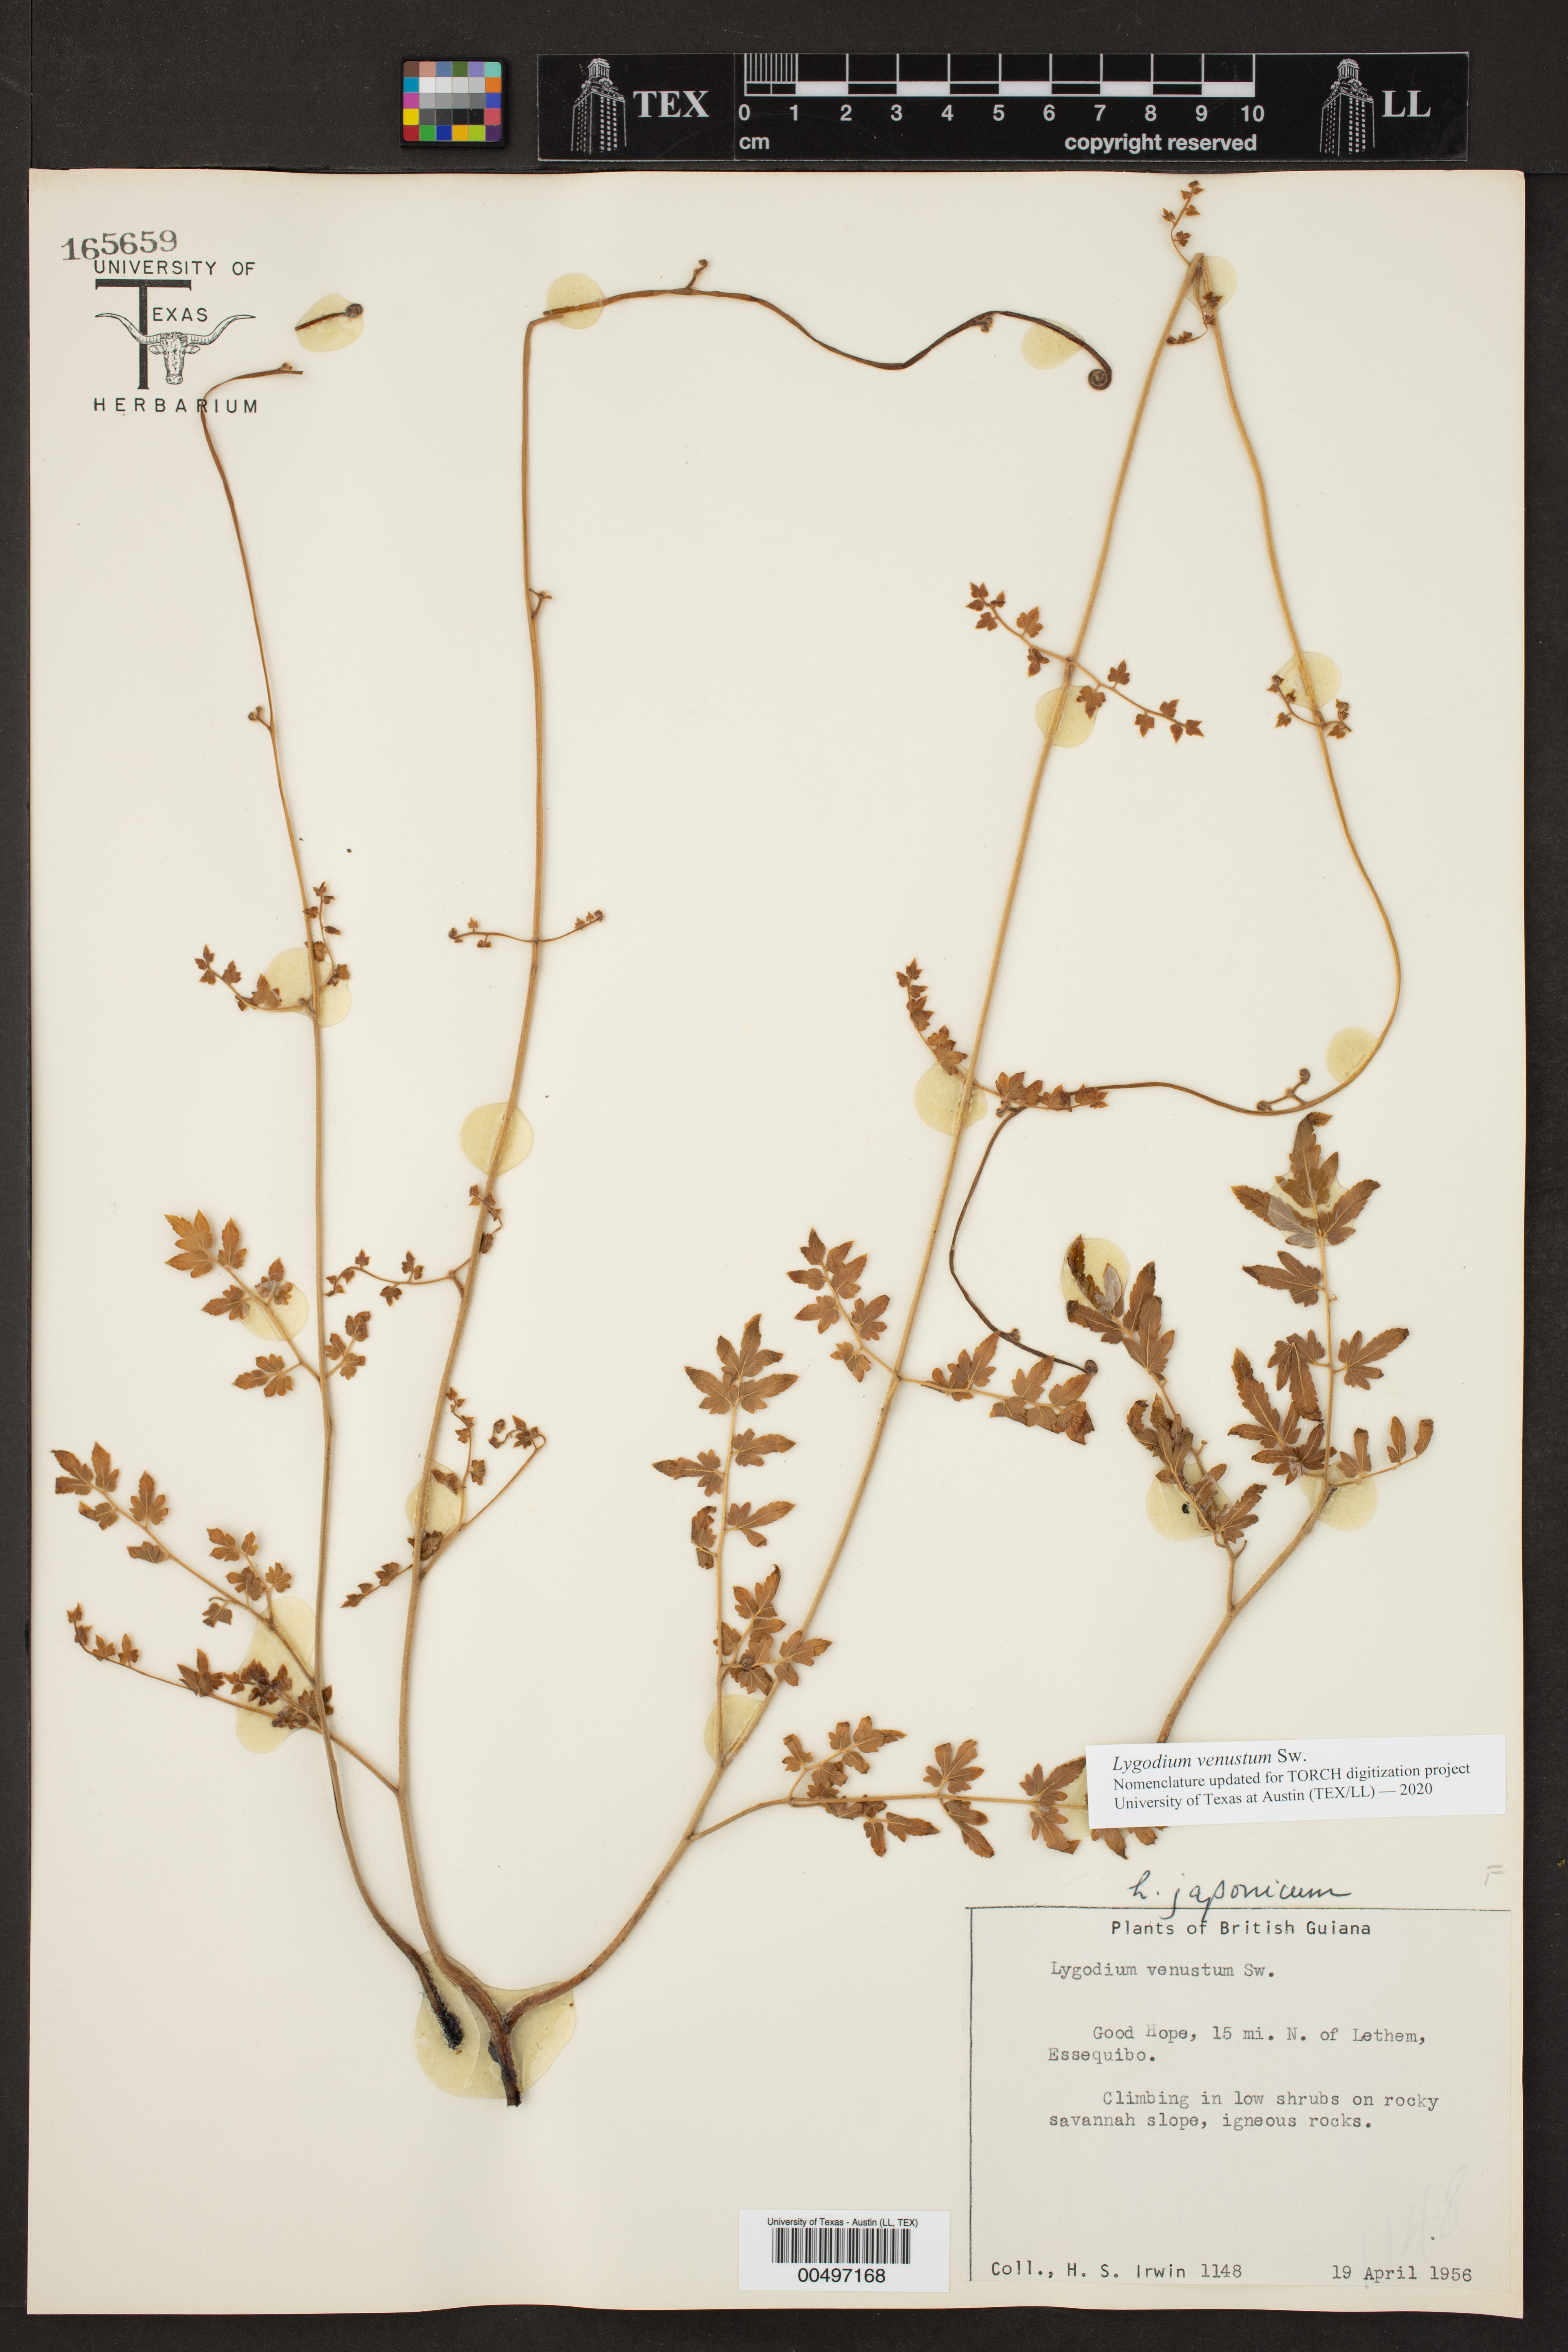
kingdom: Plantae
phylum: Tracheophyta
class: Polypodiopsida
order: Schizaeales
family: Lygodiaceae
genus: Lygodium
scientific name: Lygodium venustum
